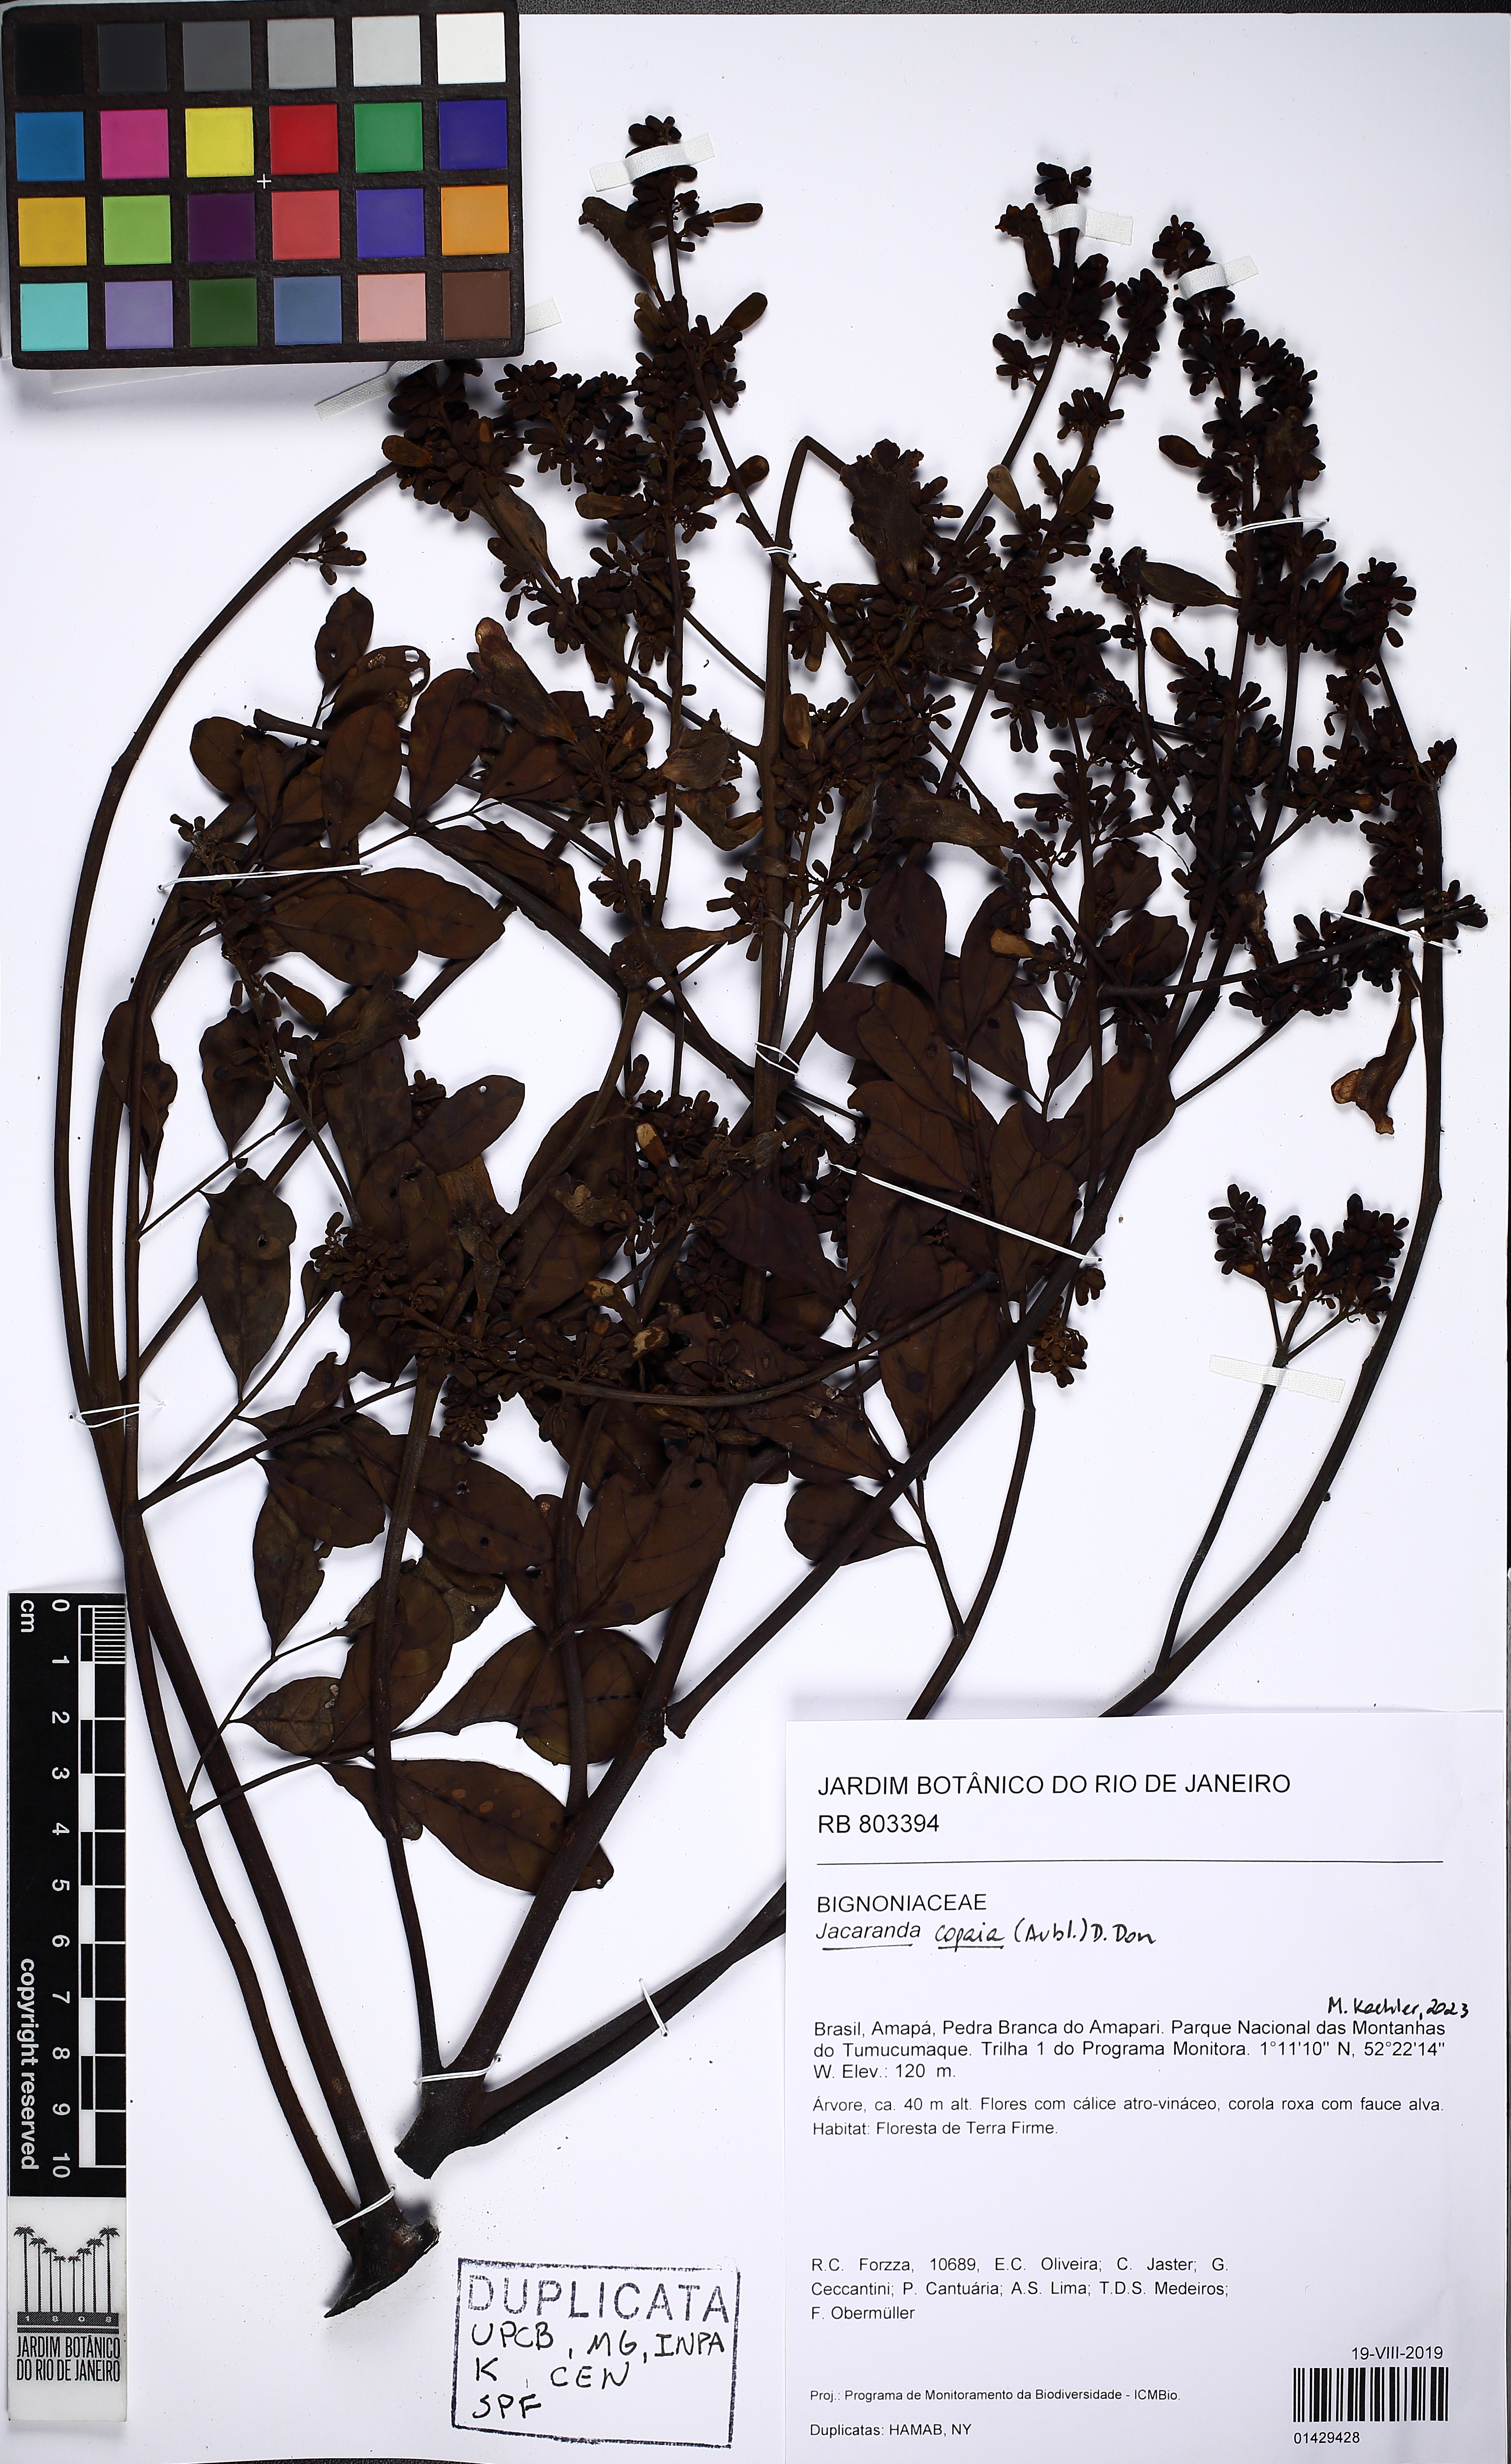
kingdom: Plantae
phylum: Tracheophyta
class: Magnoliopsida
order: Lamiales
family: Bignoniaceae
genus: Jacaranda
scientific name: Jacaranda copaia
